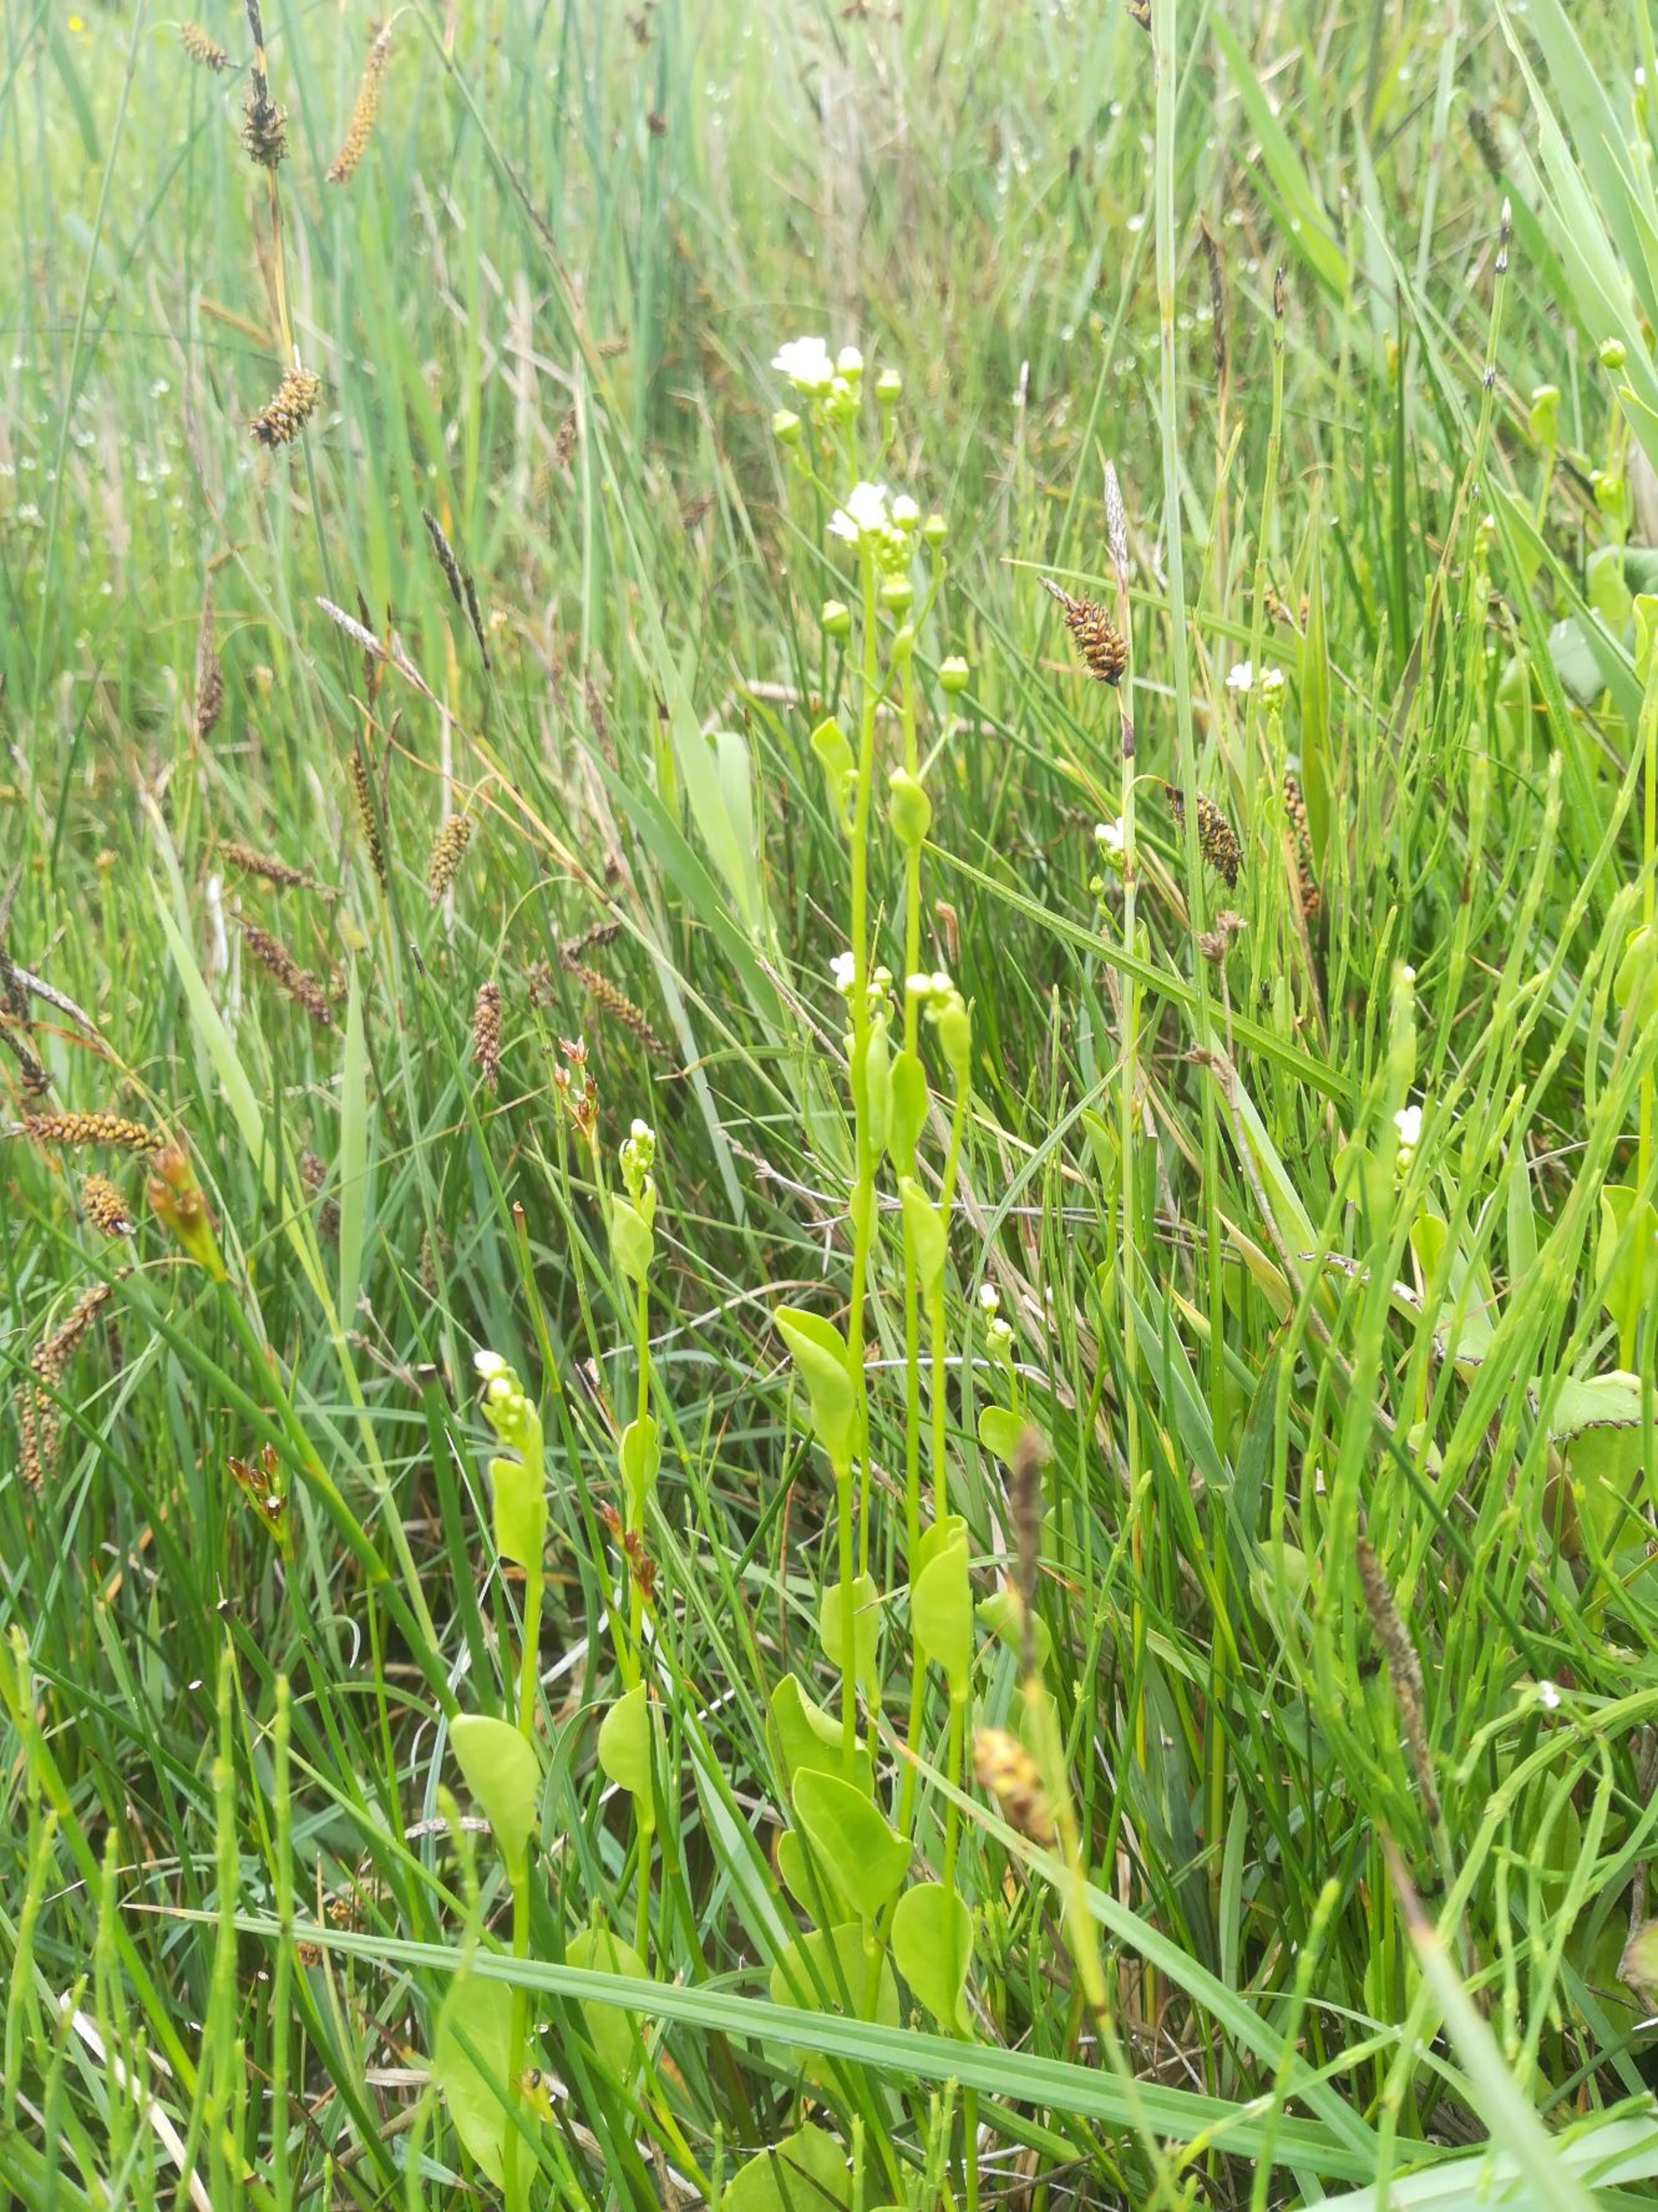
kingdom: Plantae
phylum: Tracheophyta
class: Magnoliopsida
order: Ericales
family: Primulaceae
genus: Samolus
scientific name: Samolus valerandi
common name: Samel
